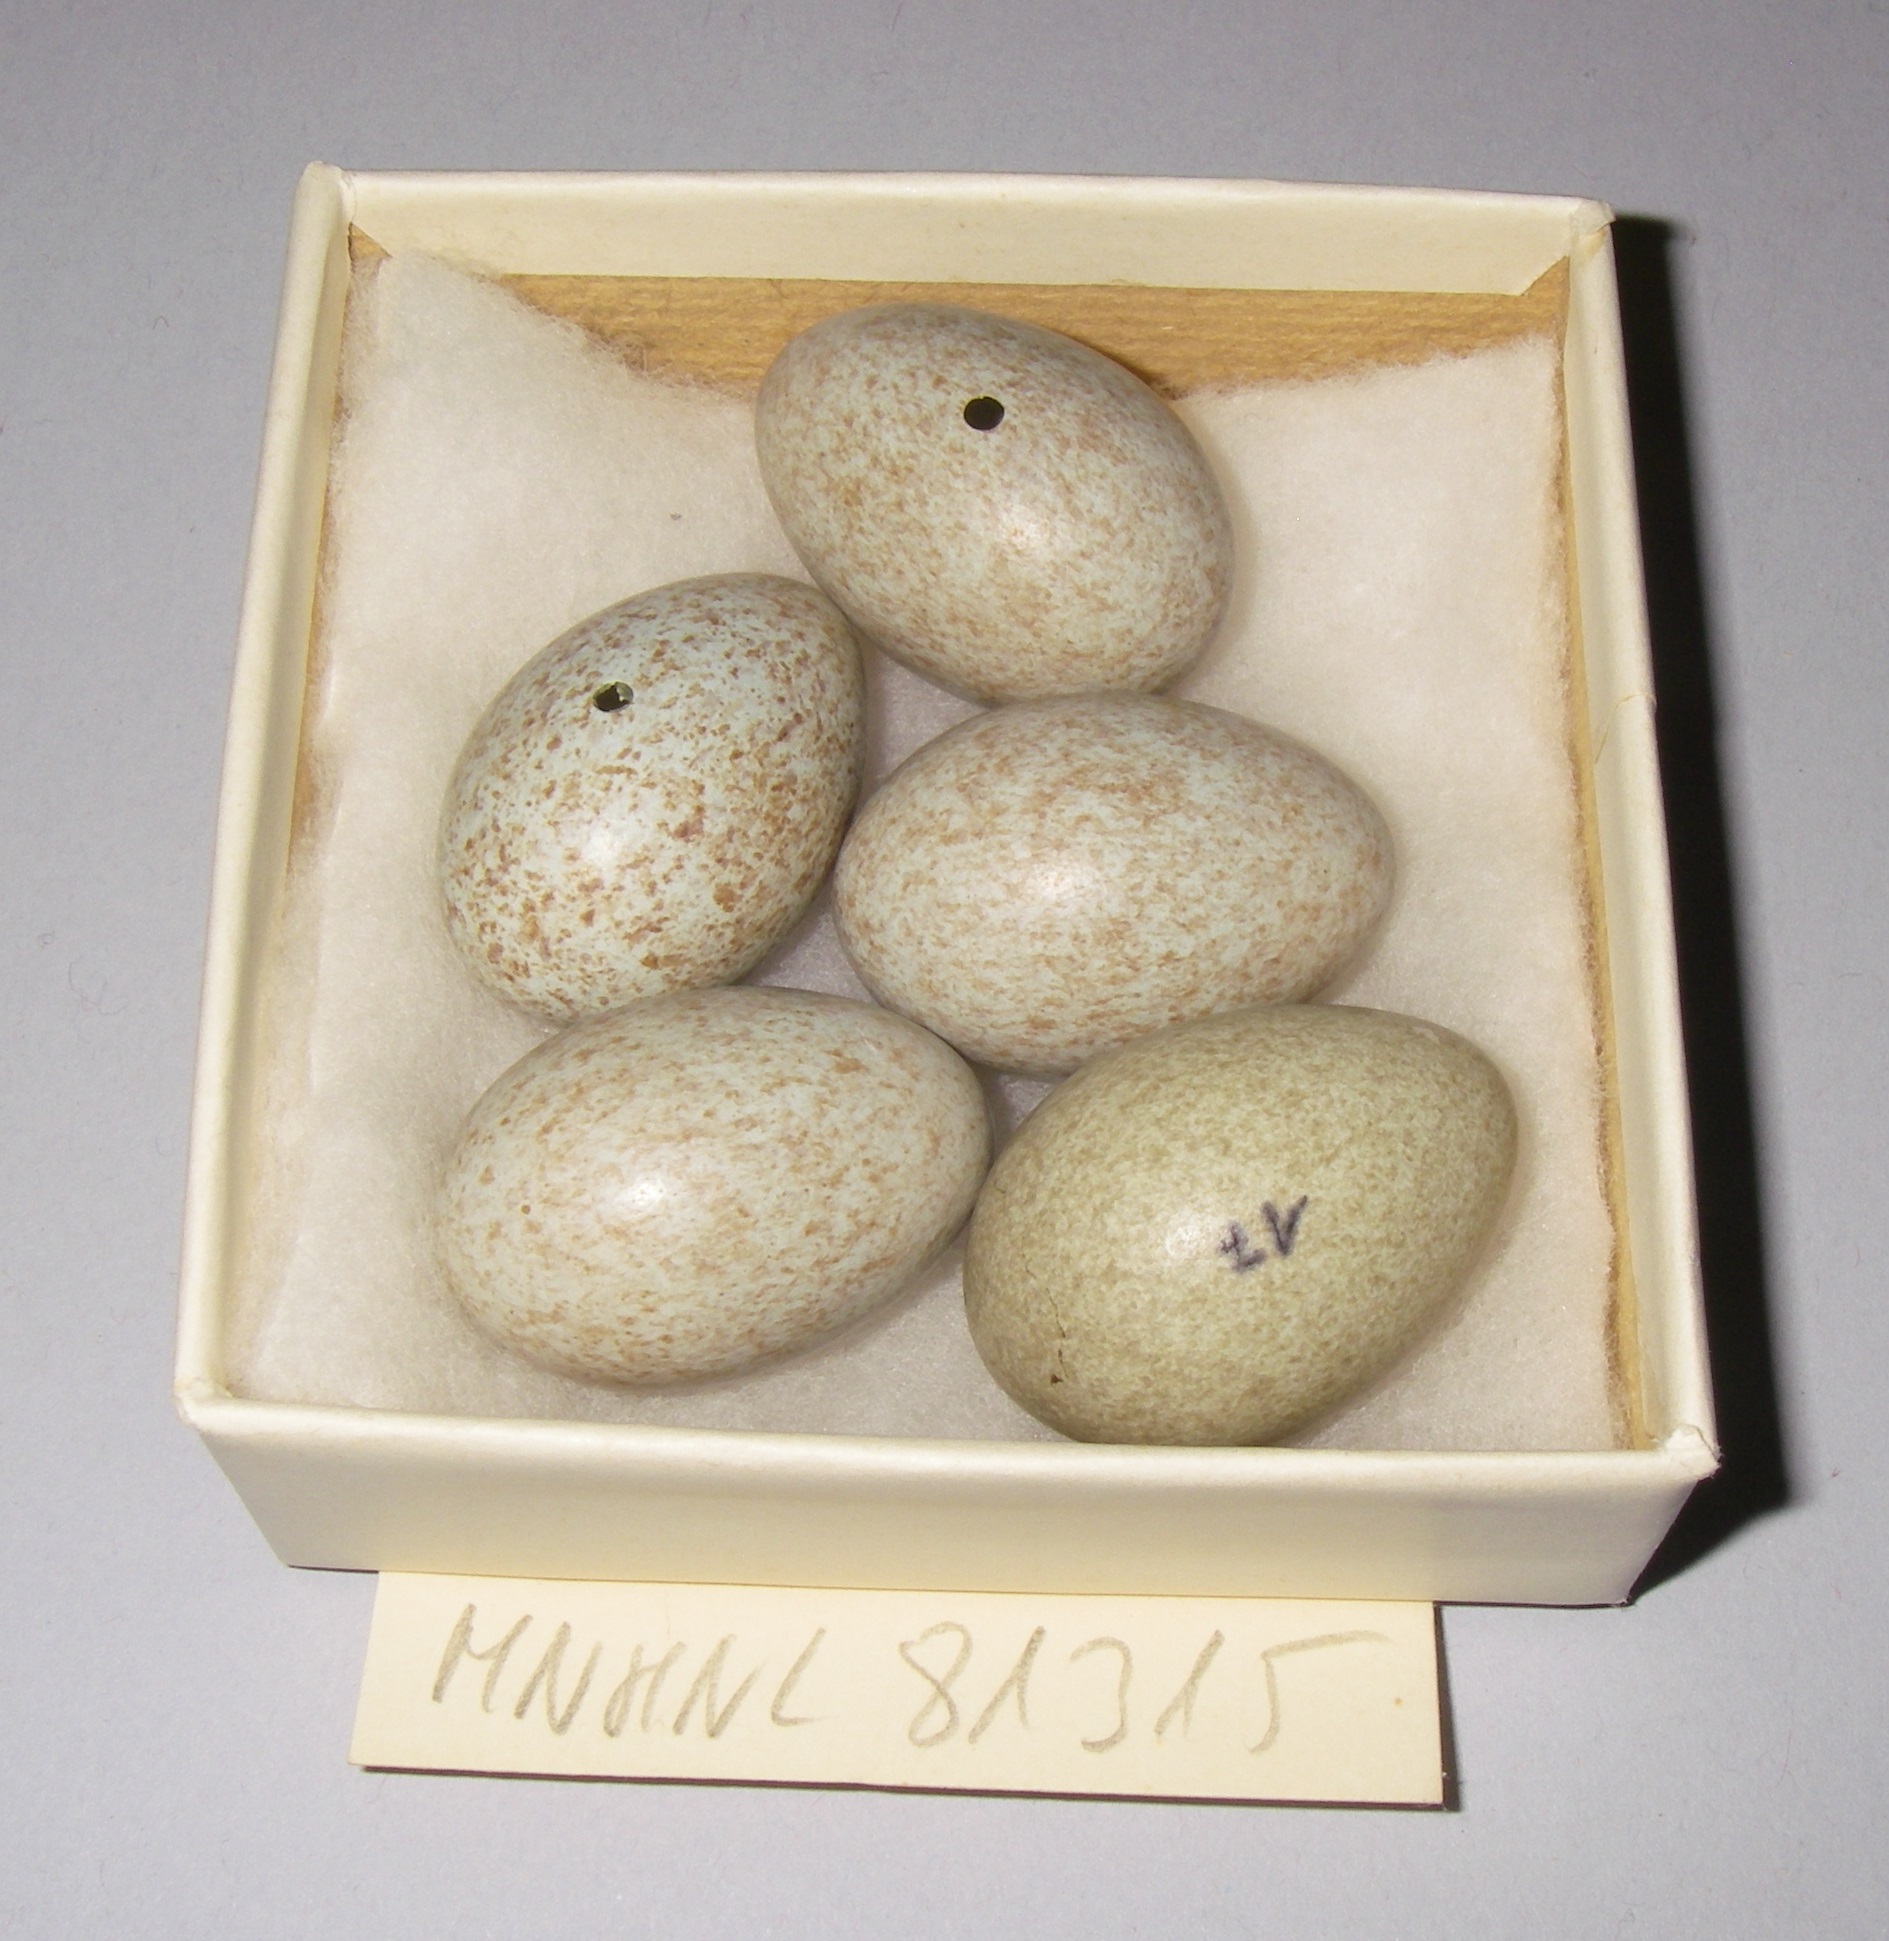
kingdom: Animalia
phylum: Chordata
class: Aves
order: Passeriformes
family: Turdidae
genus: Turdus
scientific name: Turdus merula
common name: Common blackbird
